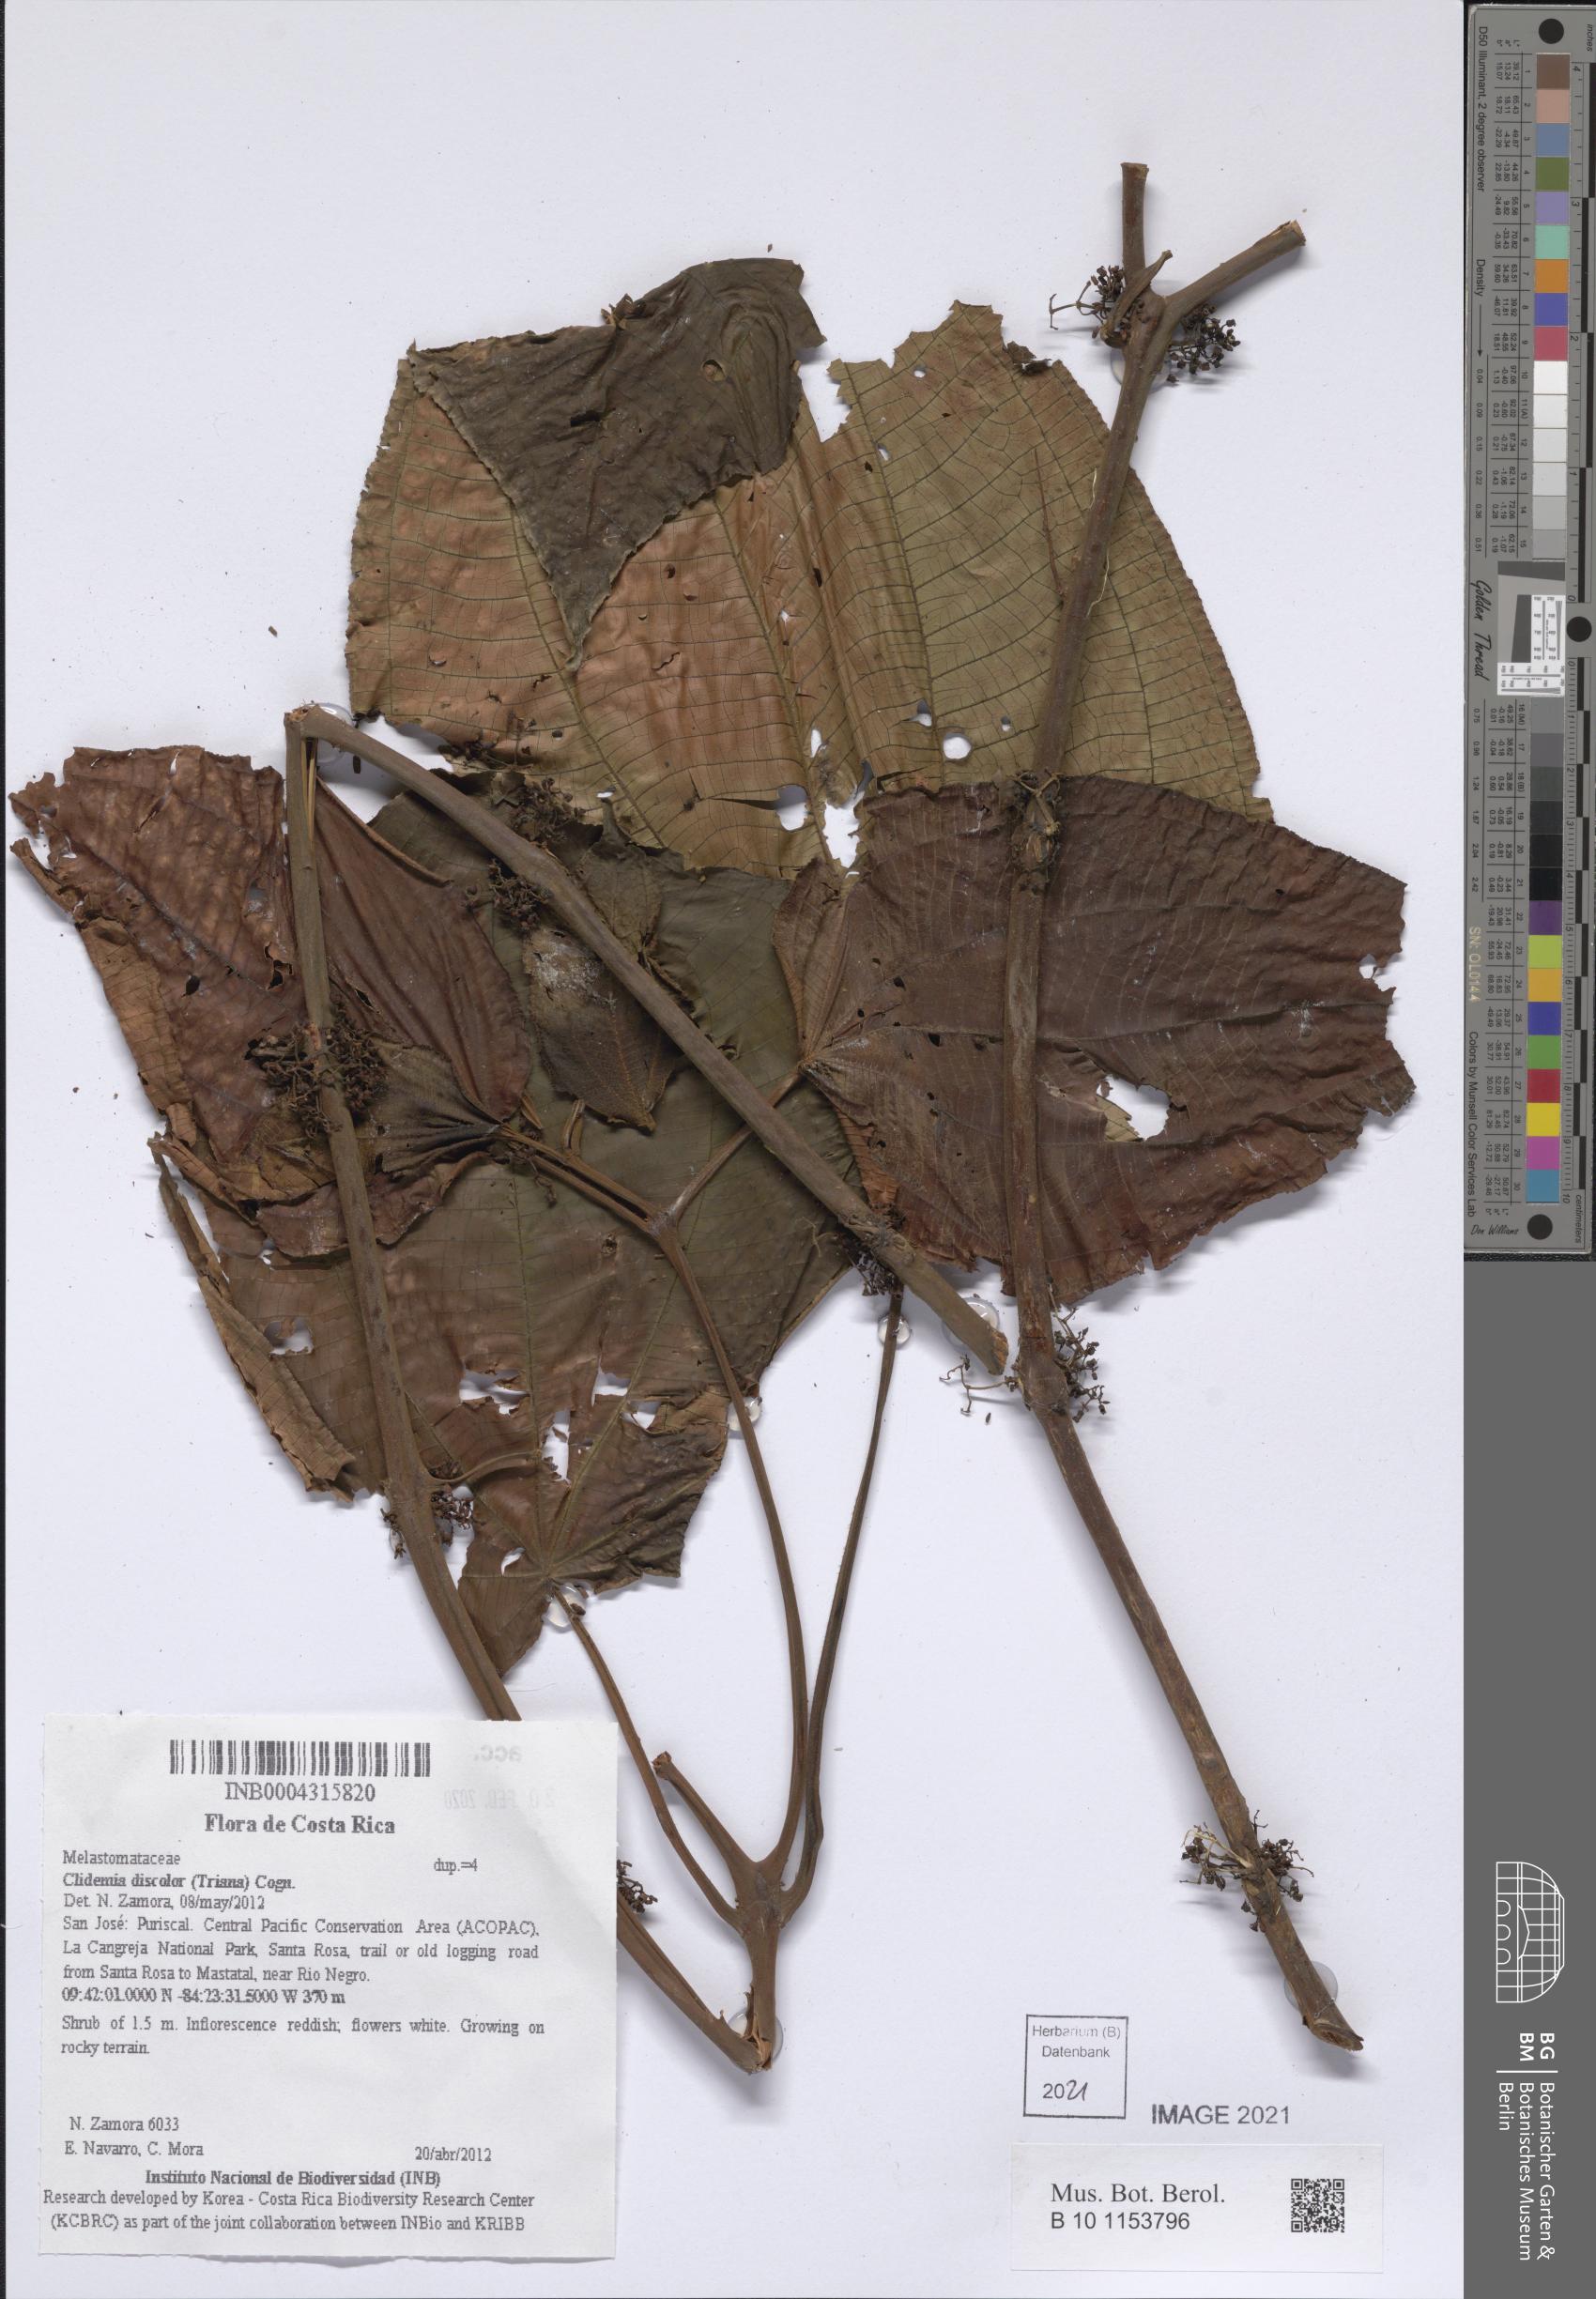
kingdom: Plantae
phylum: Tracheophyta
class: Magnoliopsida
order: Myrtales
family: Melastomataceae
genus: Miconia
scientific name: Miconia purpureoviolacea
